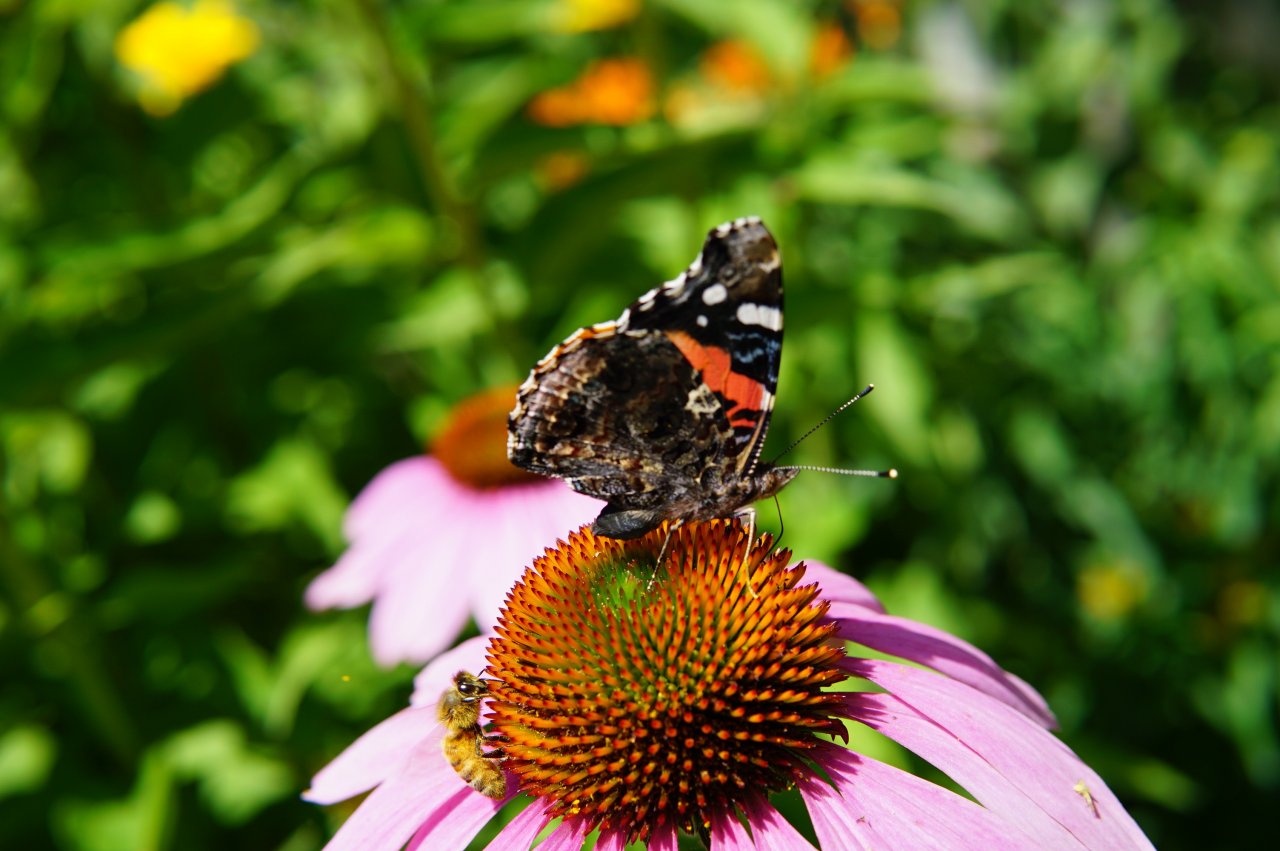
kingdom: Animalia
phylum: Arthropoda
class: Insecta
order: Lepidoptera
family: Nymphalidae
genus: Vanessa
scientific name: Vanessa atalanta
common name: Red Admiral
